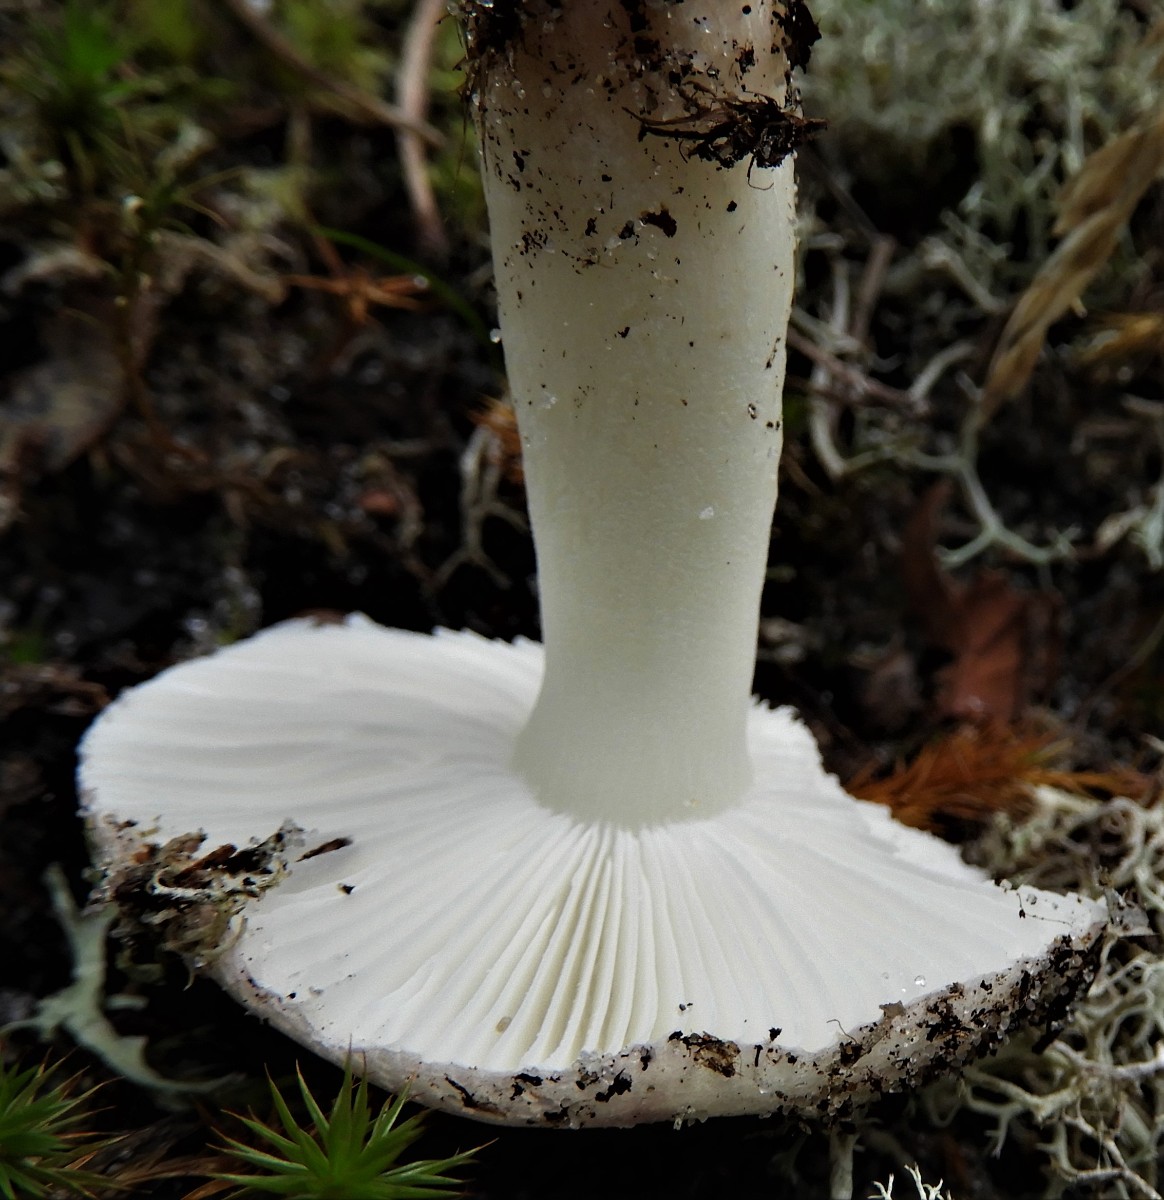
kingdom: Fungi
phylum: Basidiomycota
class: Agaricomycetes
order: Russulales
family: Russulaceae
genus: Russula
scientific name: Russula
